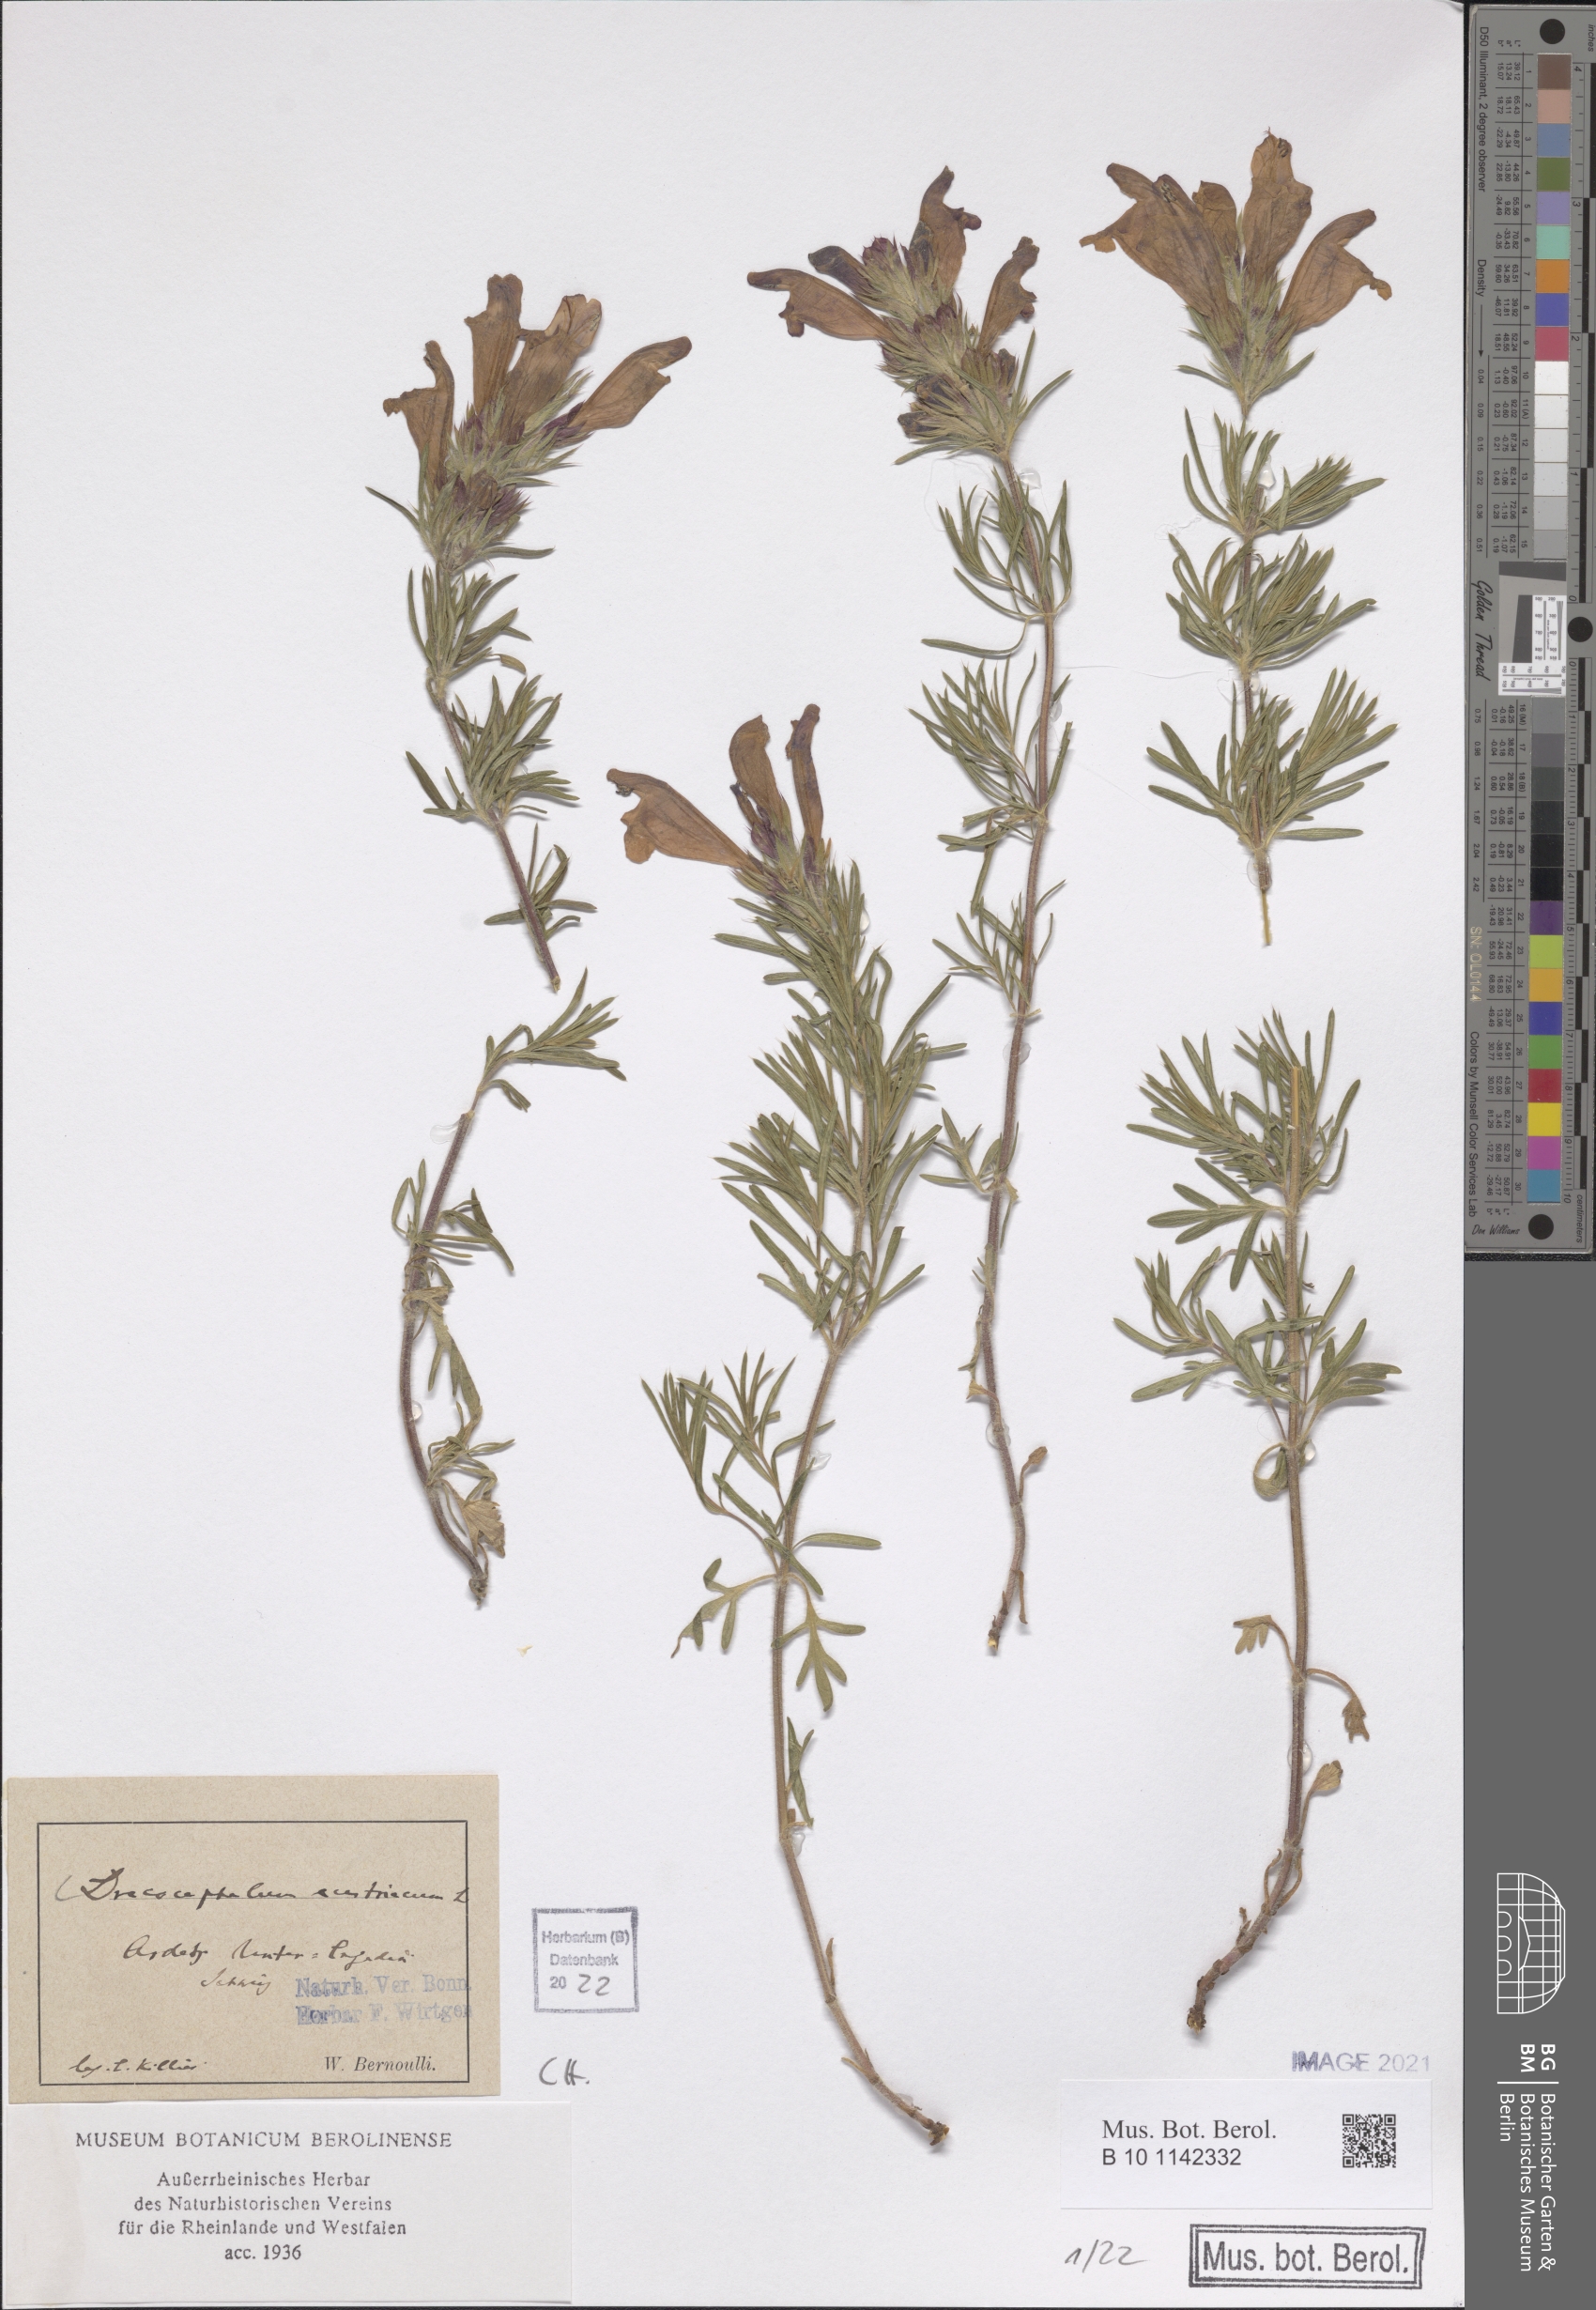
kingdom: Plantae
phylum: Tracheophyta
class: Magnoliopsida
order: Lamiales
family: Lamiaceae
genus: Dracocephalum
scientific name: Dracocephalum austriacum
